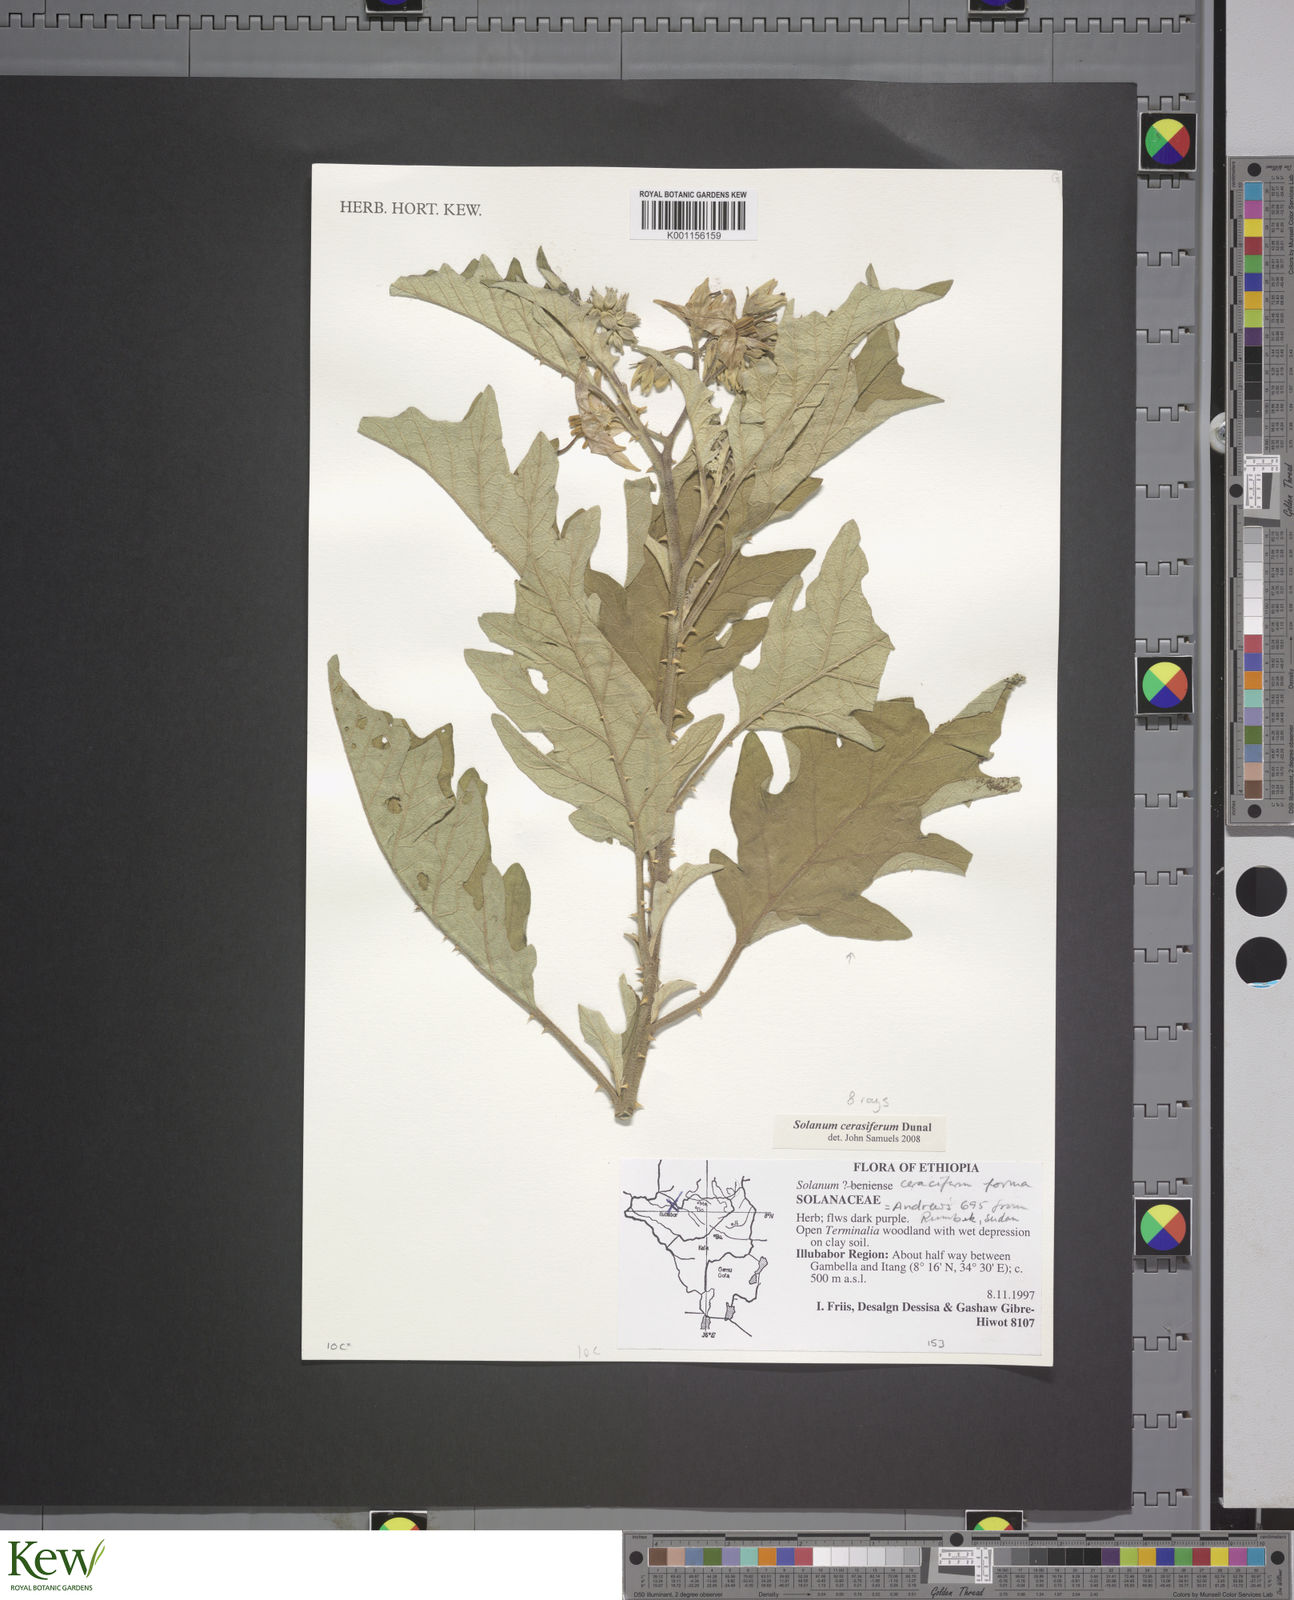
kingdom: Plantae
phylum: Tracheophyta
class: Magnoliopsida
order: Solanales
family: Solanaceae
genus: Solanum
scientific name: Solanum campylacanthum
